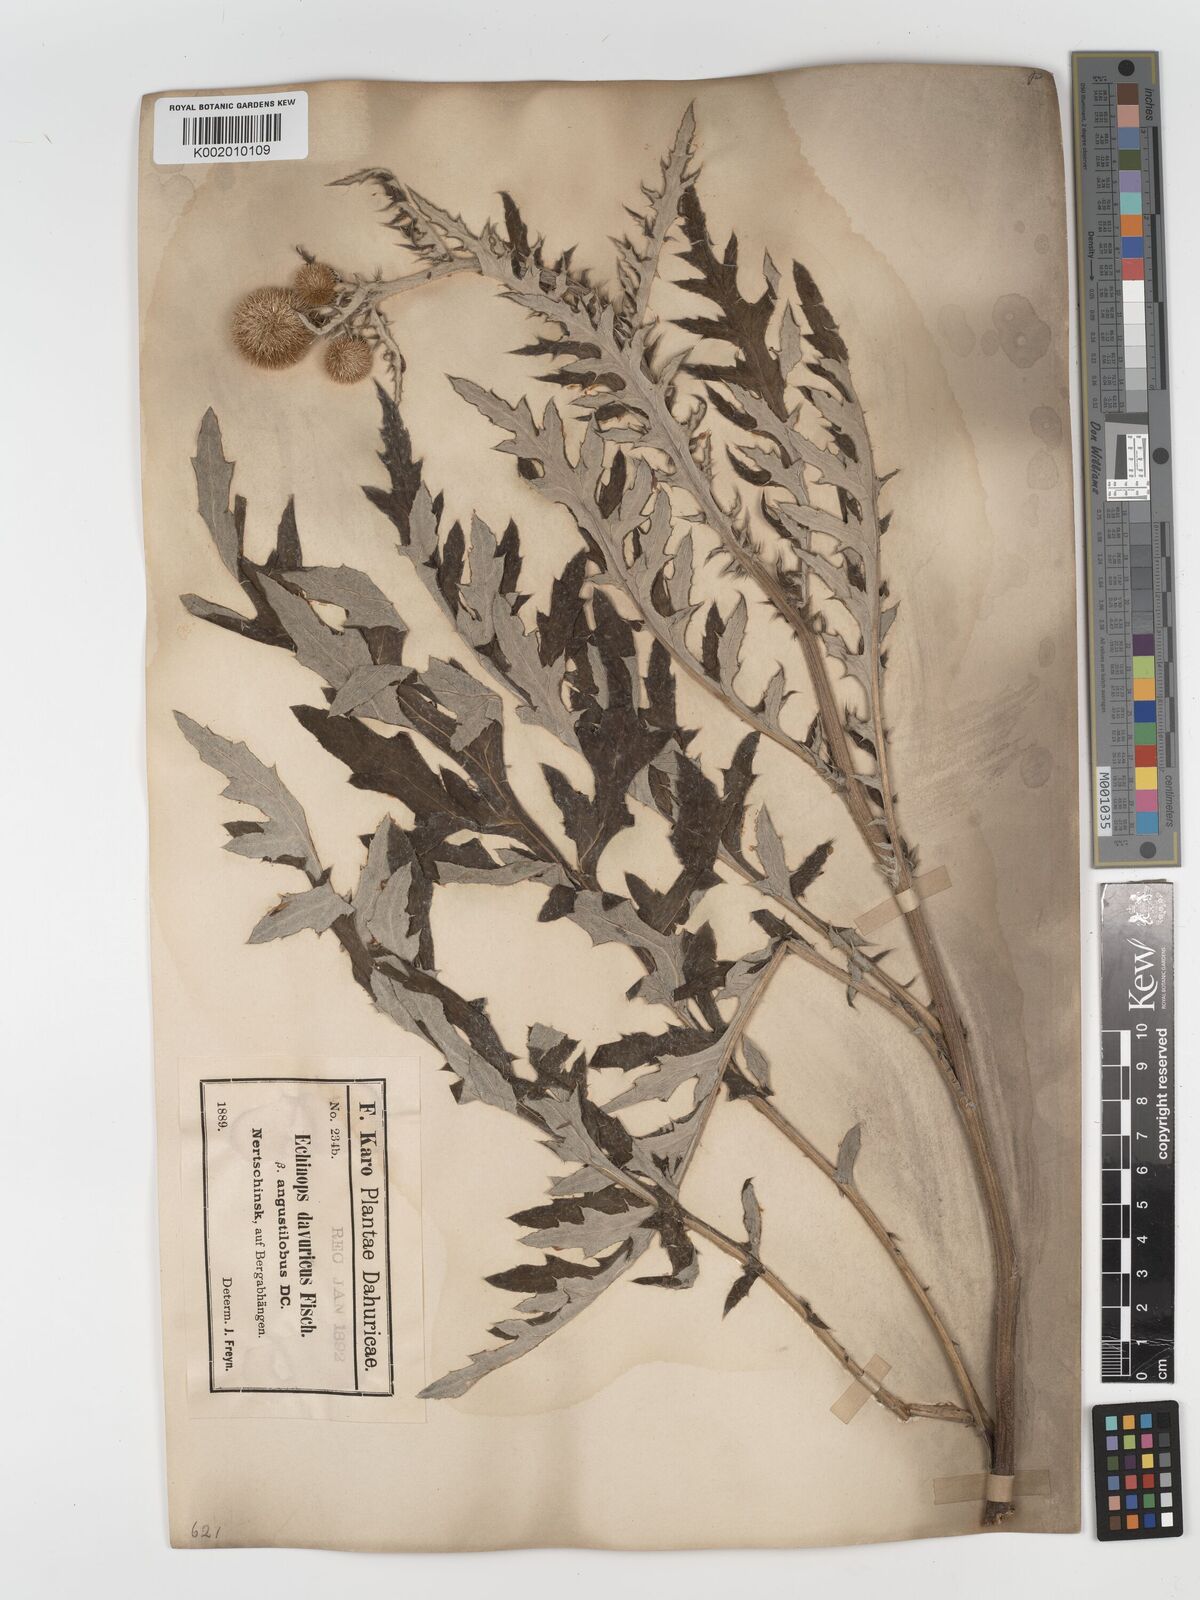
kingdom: Plantae
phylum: Tracheophyta
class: Magnoliopsida
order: Asterales
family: Asteraceae
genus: Echinops
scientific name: Echinops humilis
